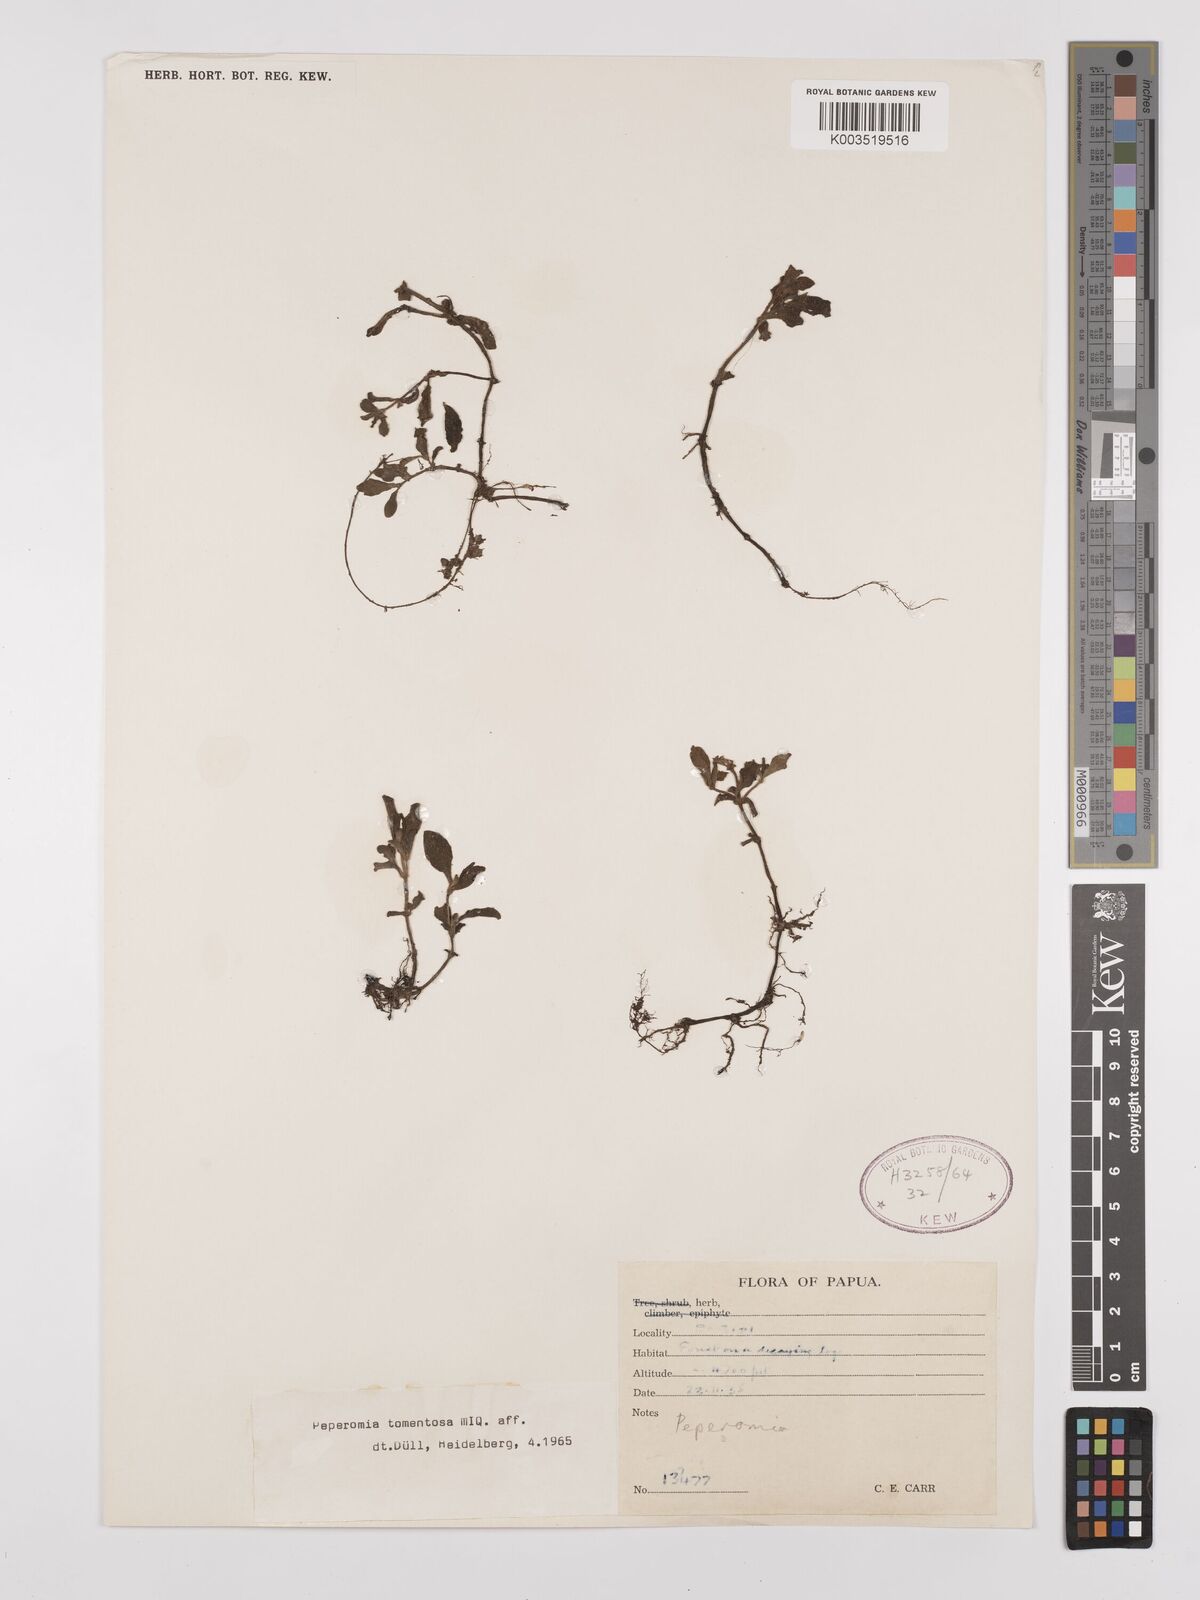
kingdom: Plantae
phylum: Tracheophyta
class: Magnoliopsida
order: Piperales
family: Piperaceae
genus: Peperomia
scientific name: Peperomia tomentosa
